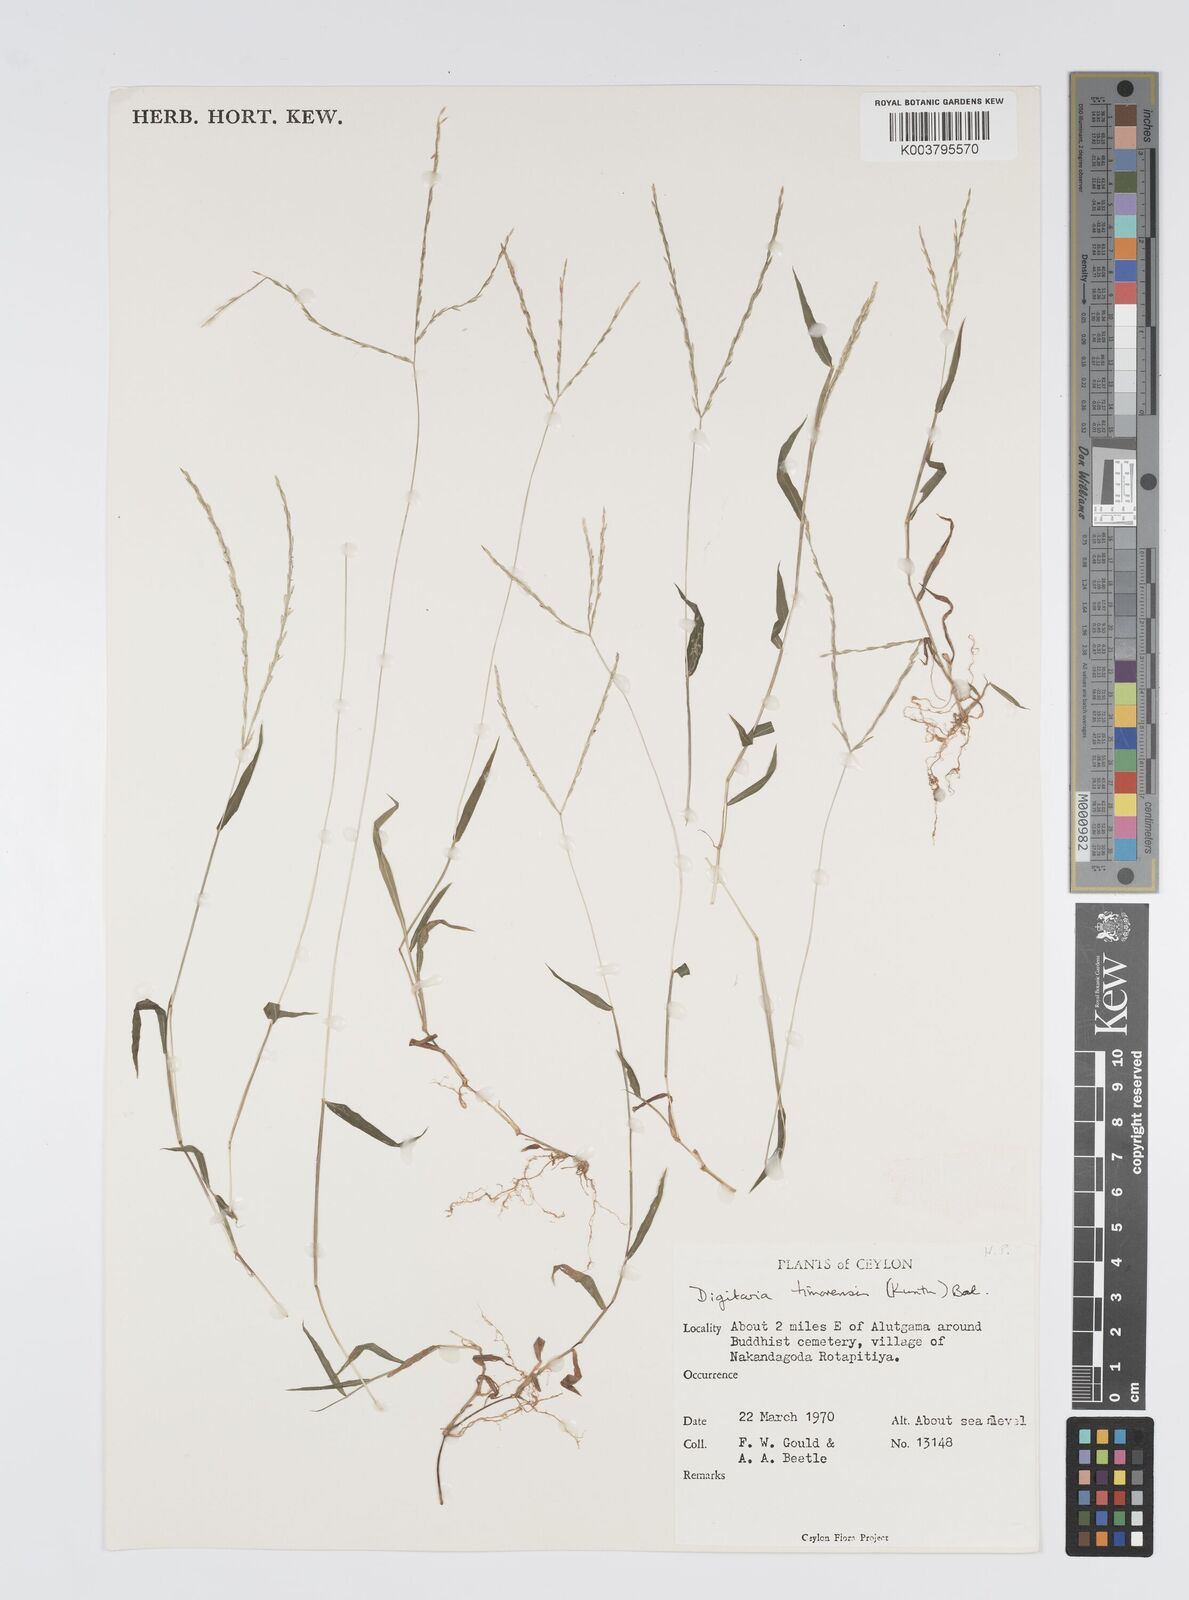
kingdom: Plantae
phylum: Tracheophyta
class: Liliopsida
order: Poales
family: Poaceae
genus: Digitaria
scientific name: Digitaria radicosa
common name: Trailing crabgrass
